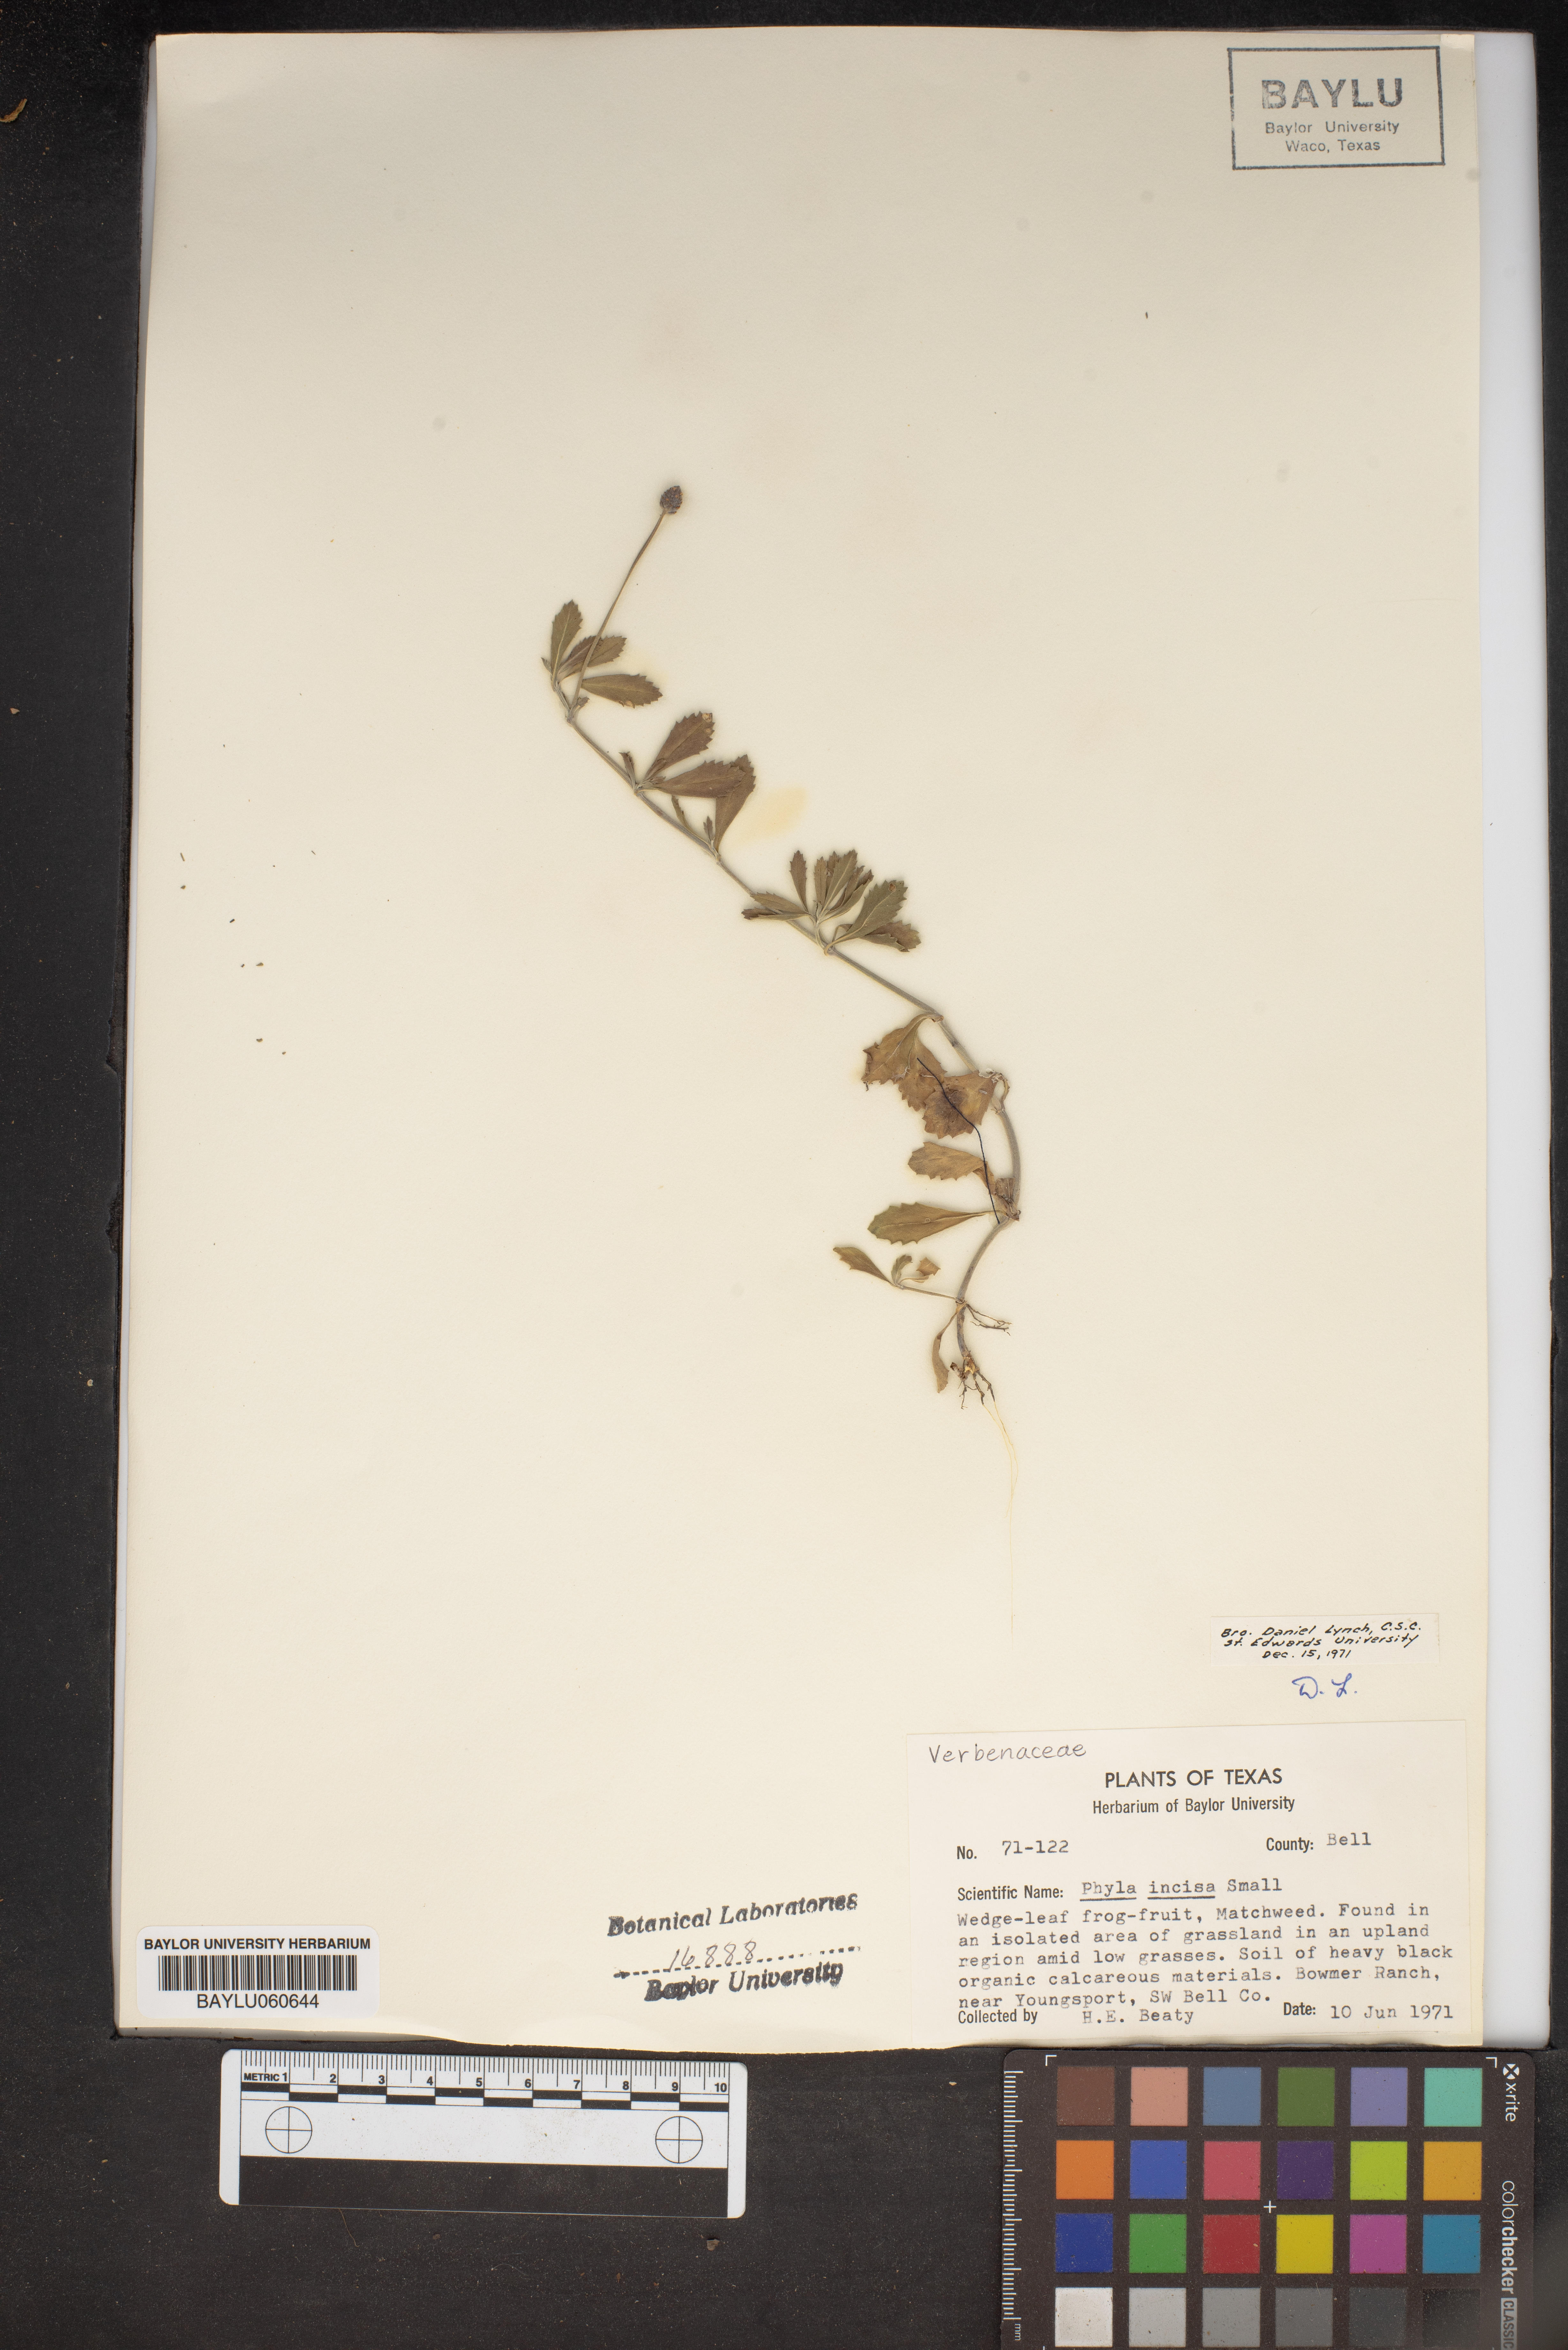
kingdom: Plantae
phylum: Tracheophyta
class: Magnoliopsida
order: Lamiales
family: Verbenaceae
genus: Phyla
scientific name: Phyla nodiflora
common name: Frogfruit
